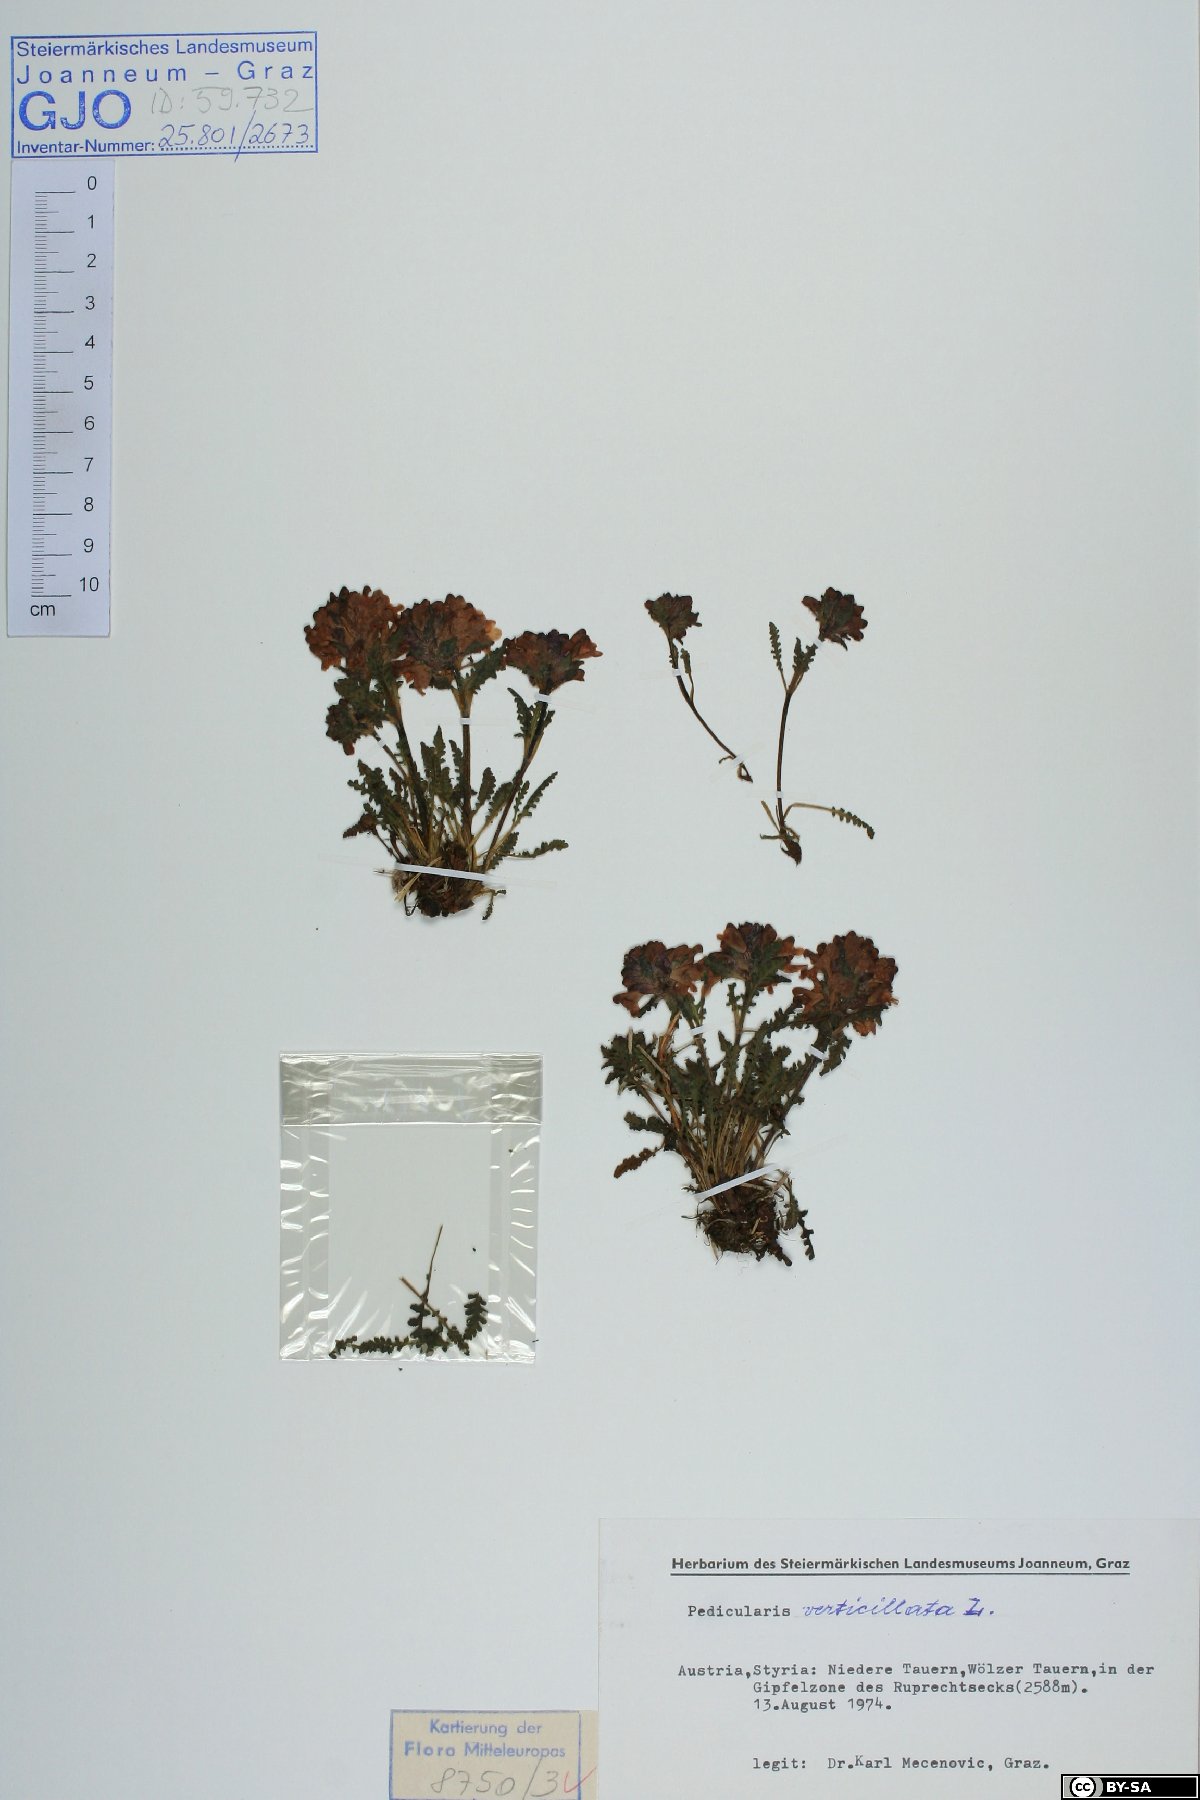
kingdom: Plantae
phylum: Tracheophyta
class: Magnoliopsida
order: Lamiales
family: Orobanchaceae
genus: Pedicularis
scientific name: Pedicularis verticillata
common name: Whorled lousewort
